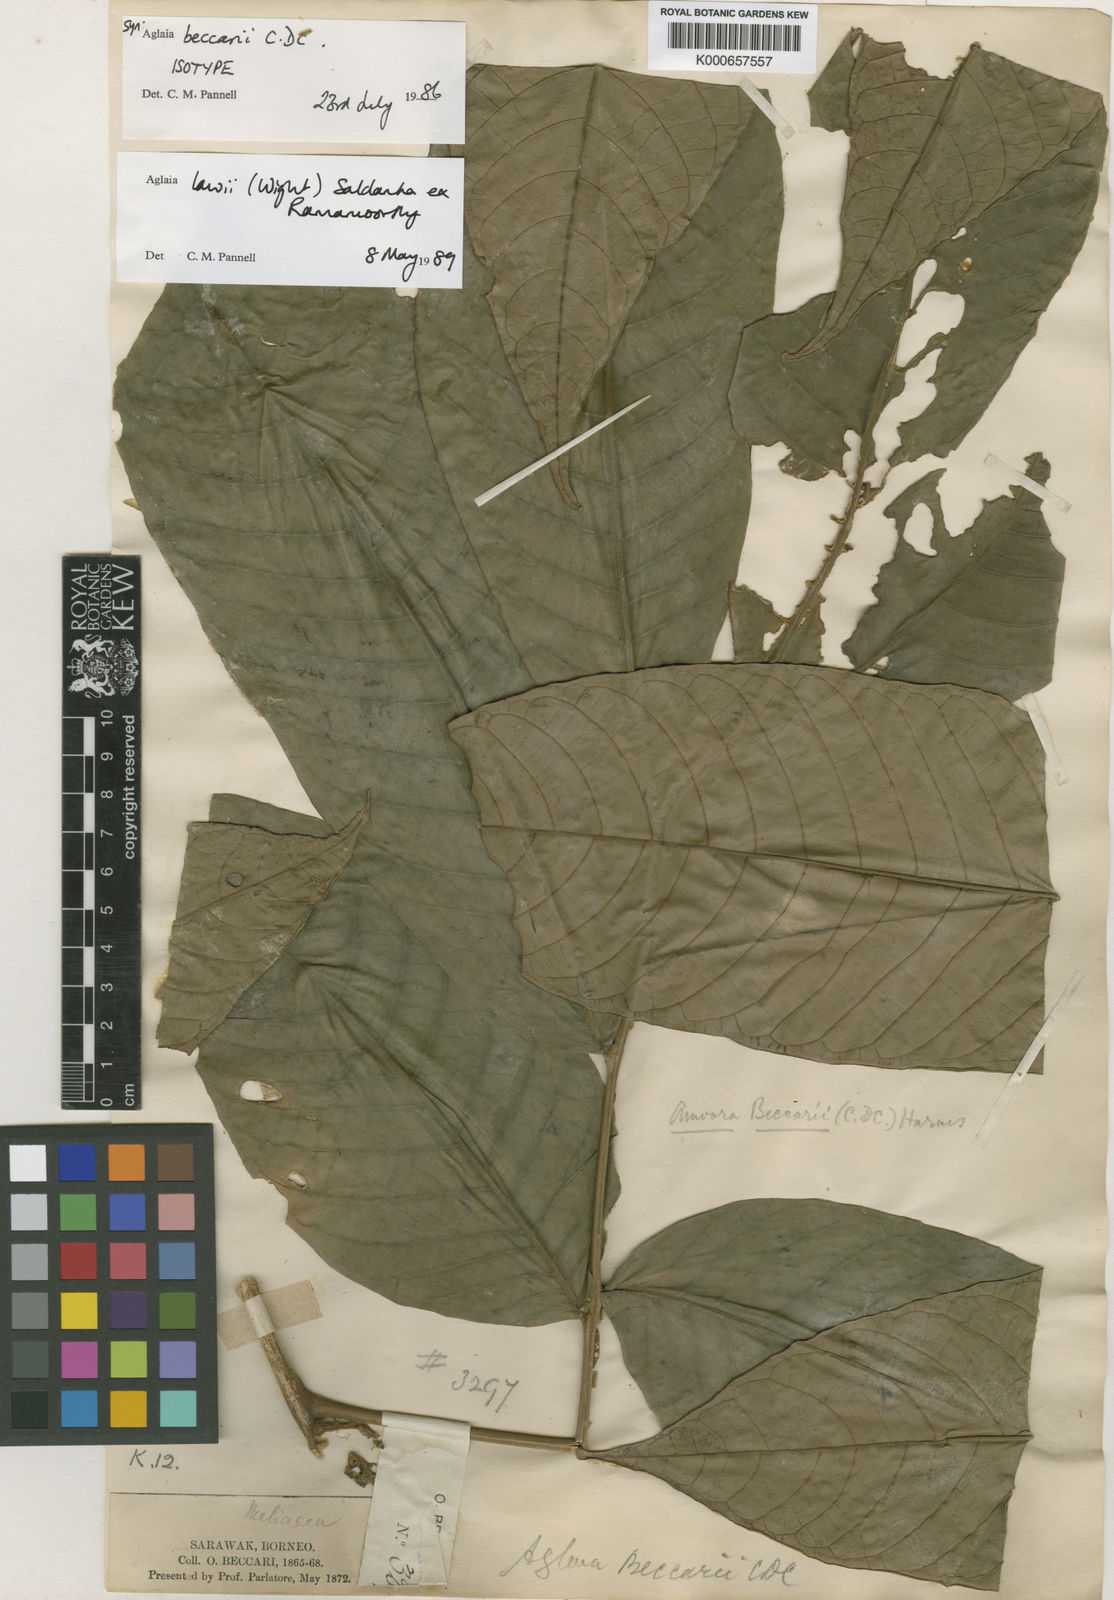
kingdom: Plantae
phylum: Tracheophyta
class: Magnoliopsida
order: Sapindales
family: Meliaceae
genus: Aglaia
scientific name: Aglaia beccarii
